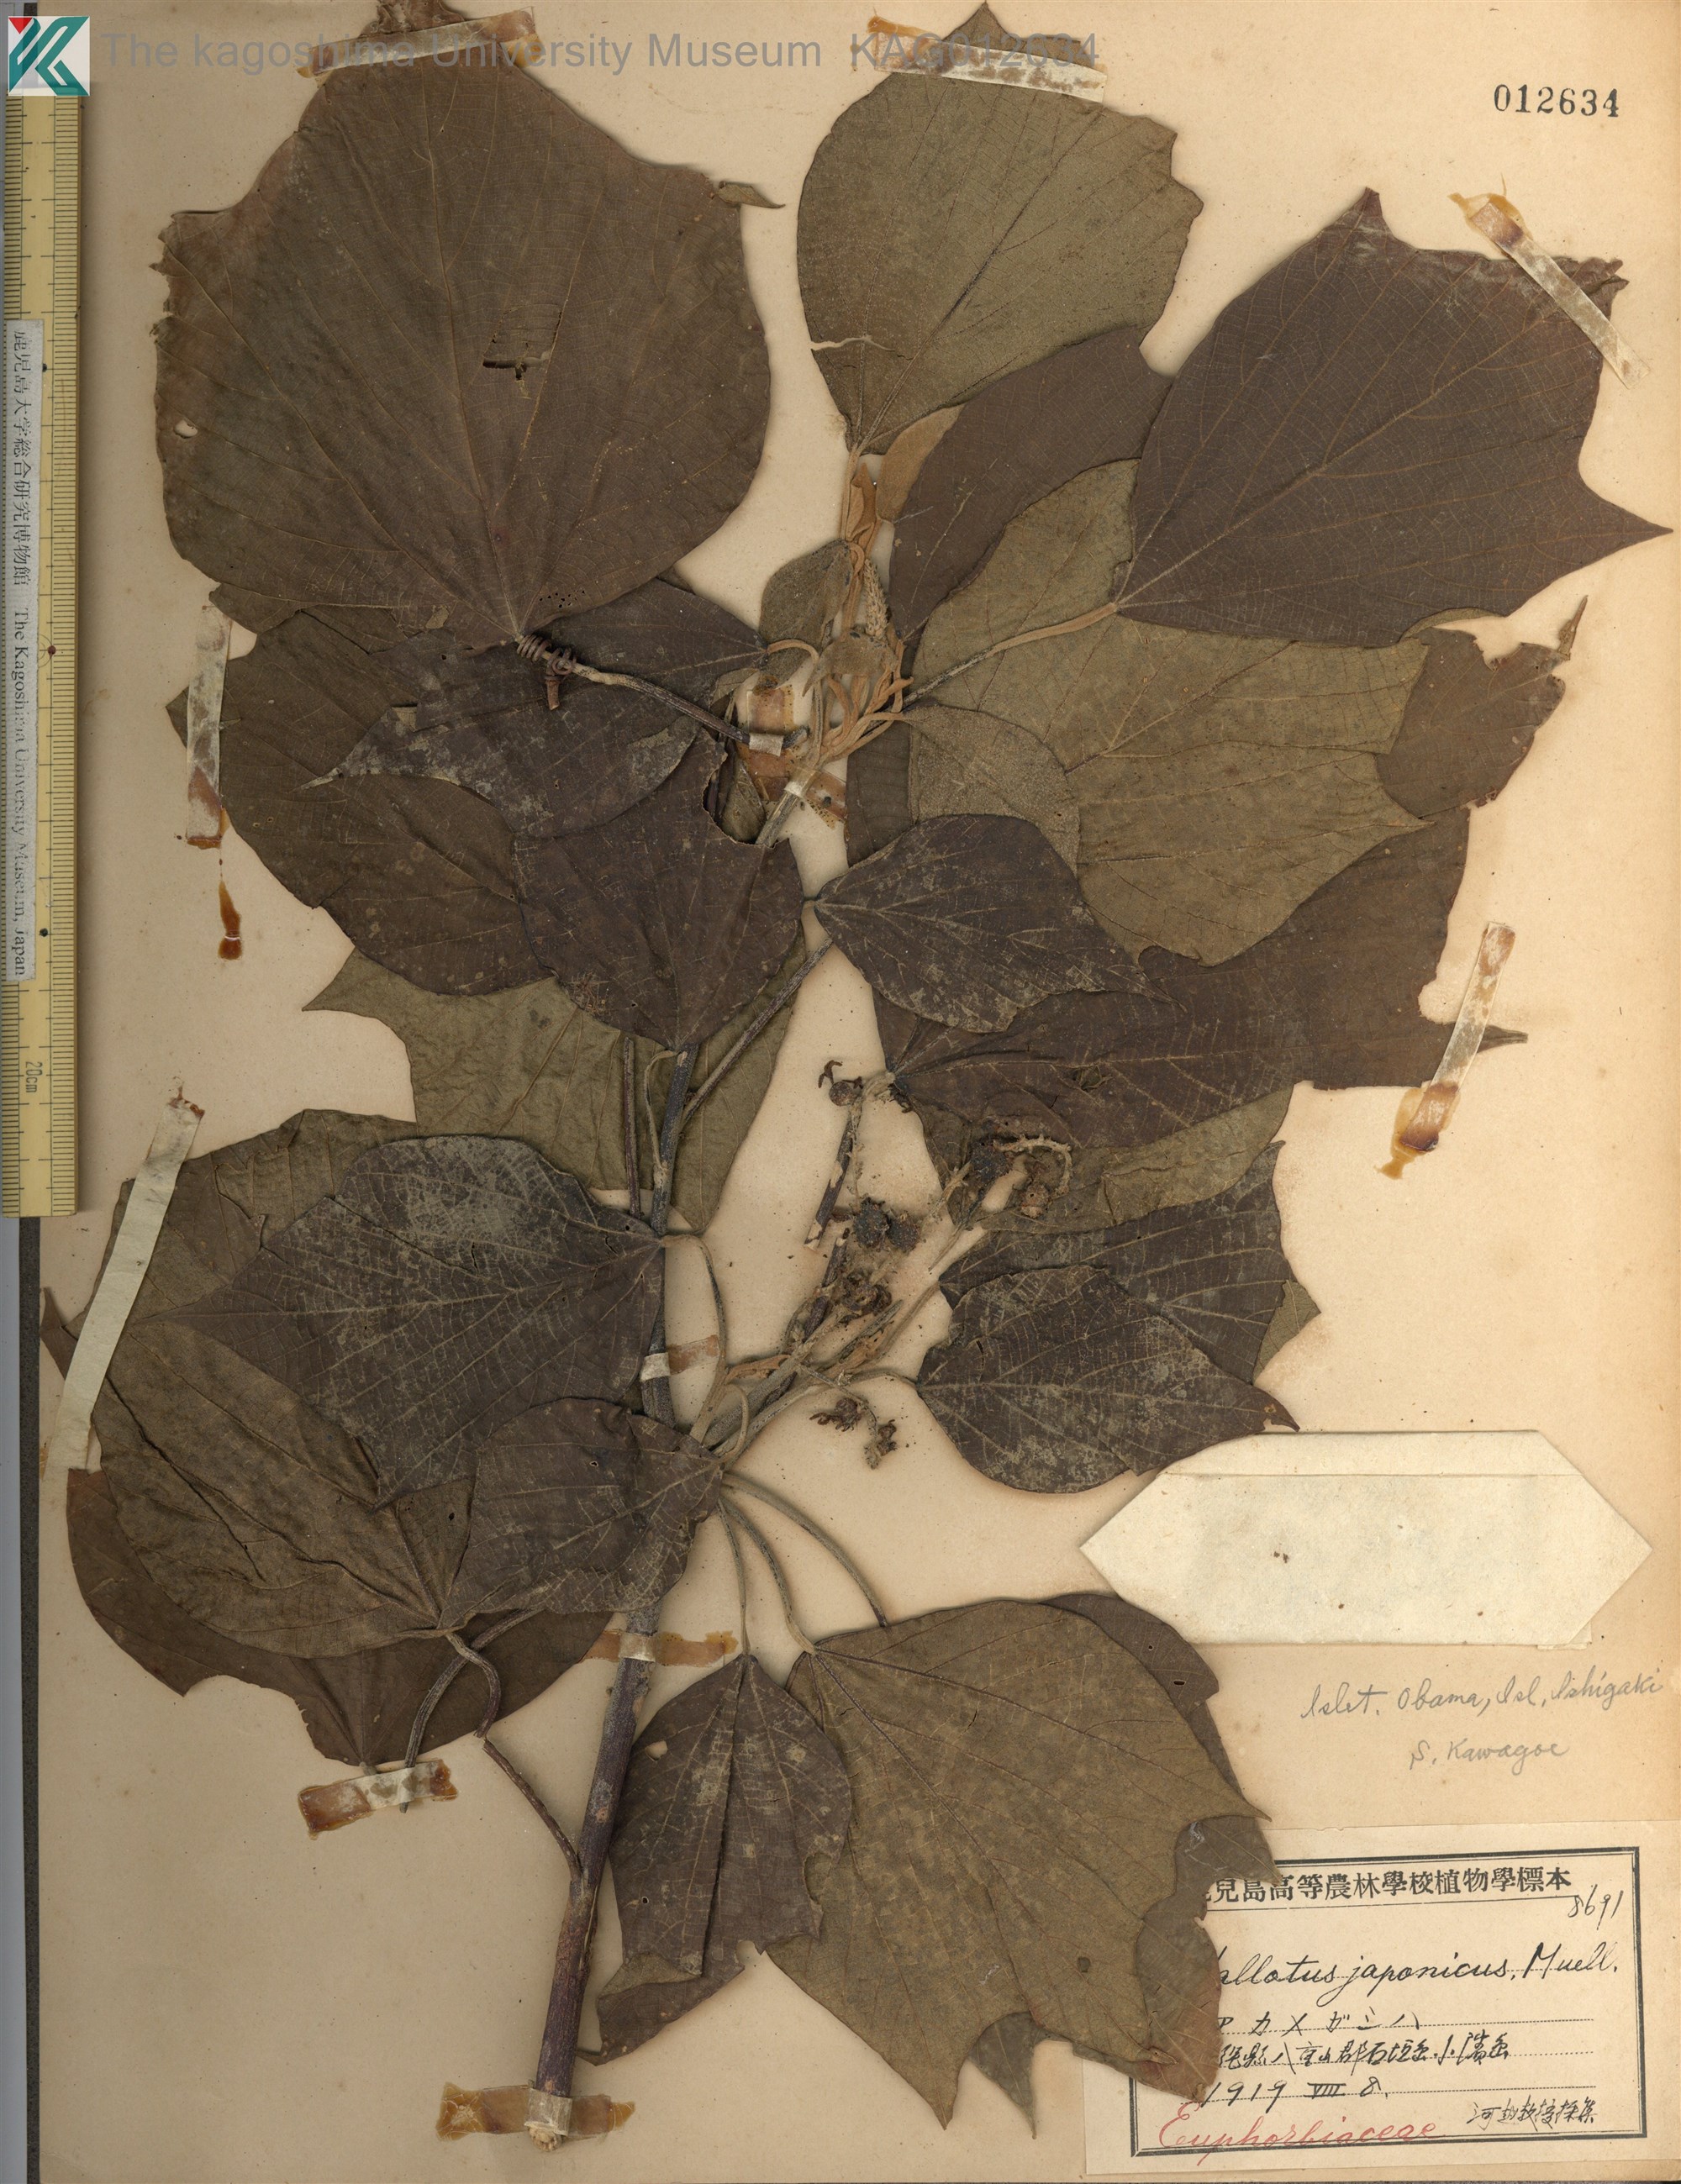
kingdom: Plantae
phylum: Tracheophyta
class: Magnoliopsida
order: Malpighiales
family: Euphorbiaceae
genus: Mallotus
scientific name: Mallotus japonicus
